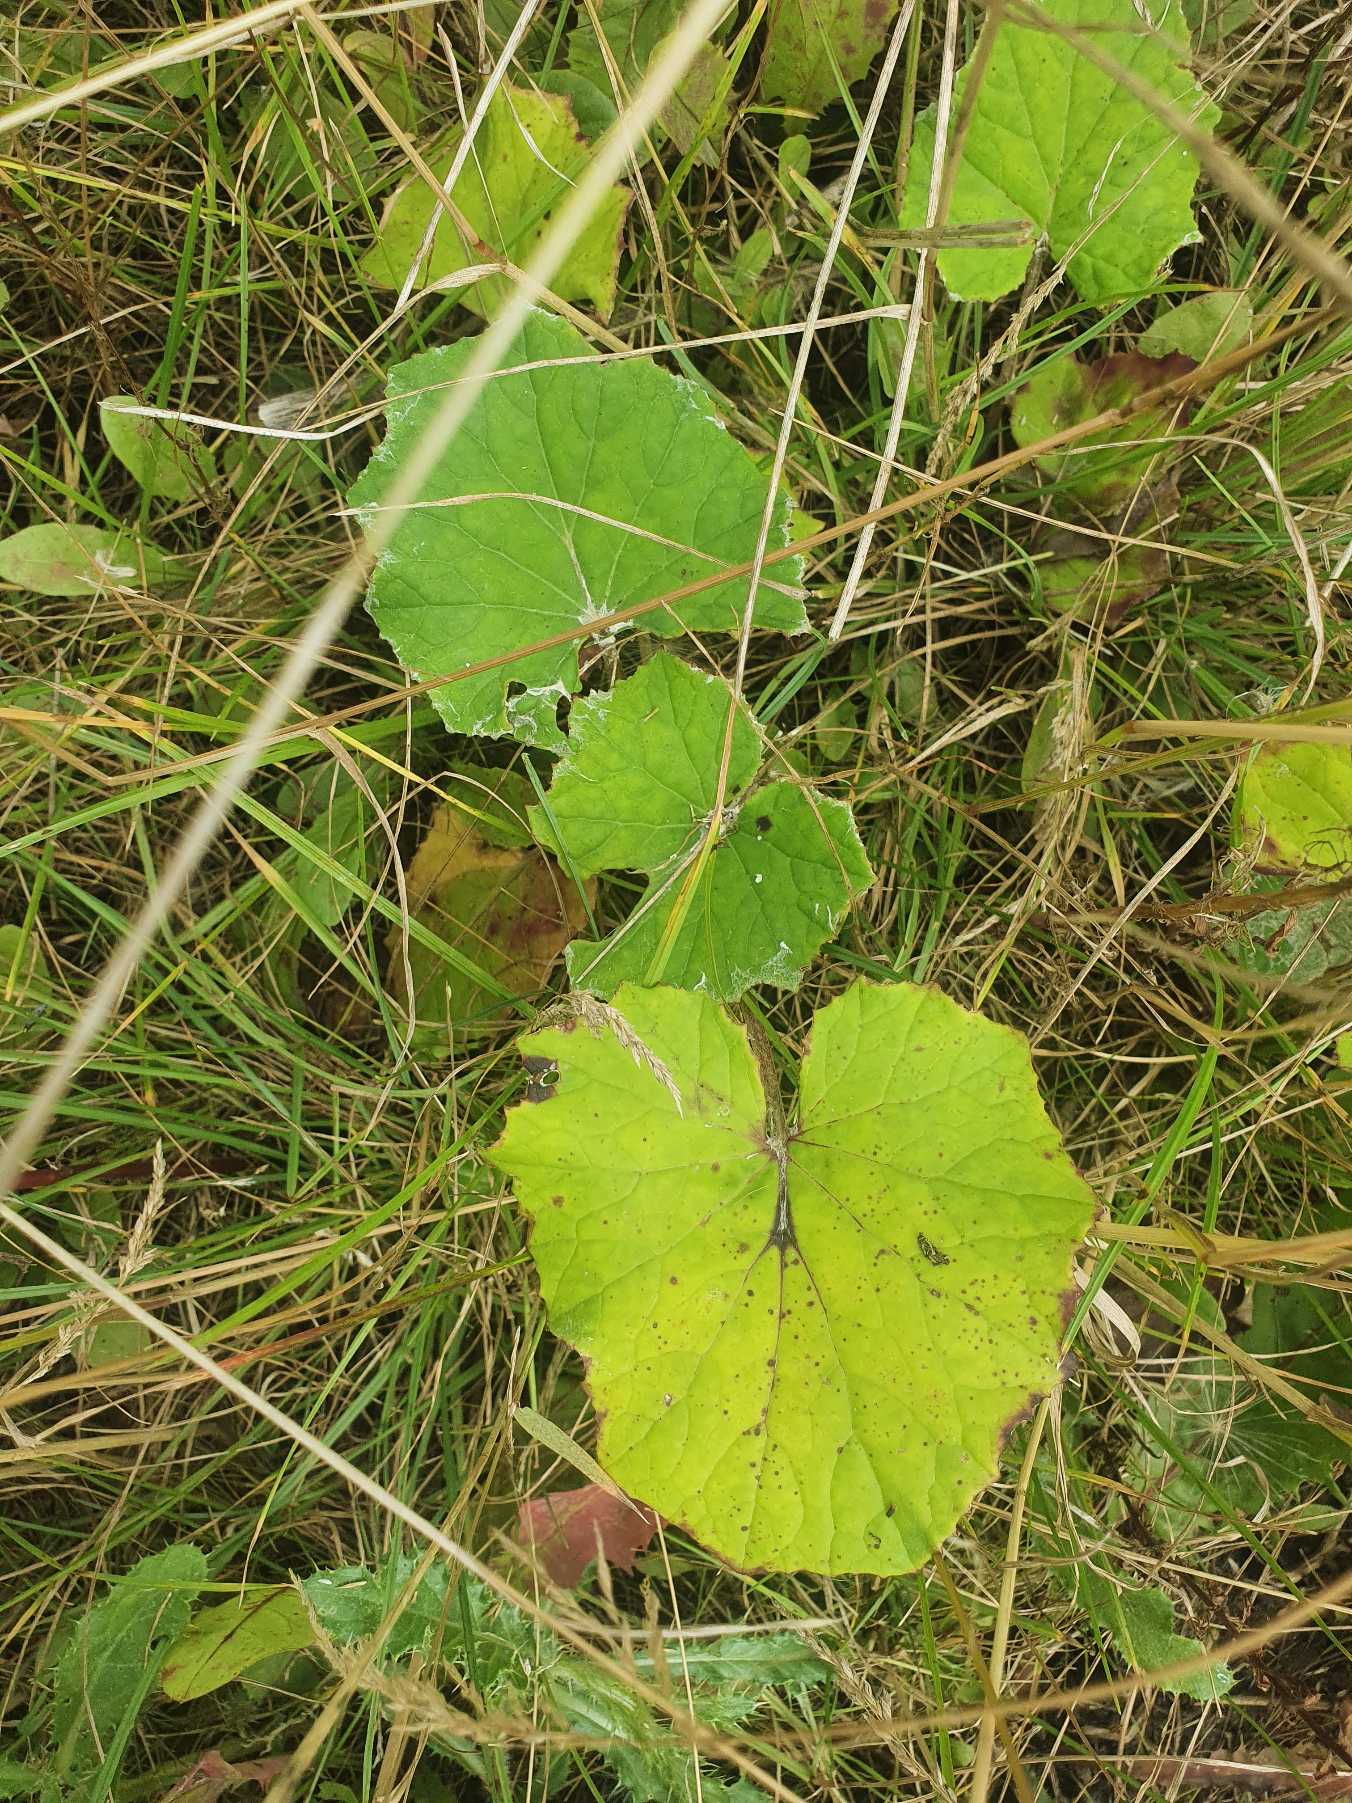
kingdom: Plantae
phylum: Tracheophyta
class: Magnoliopsida
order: Asterales
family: Asteraceae
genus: Tussilago
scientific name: Tussilago farfara
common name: Følfod
